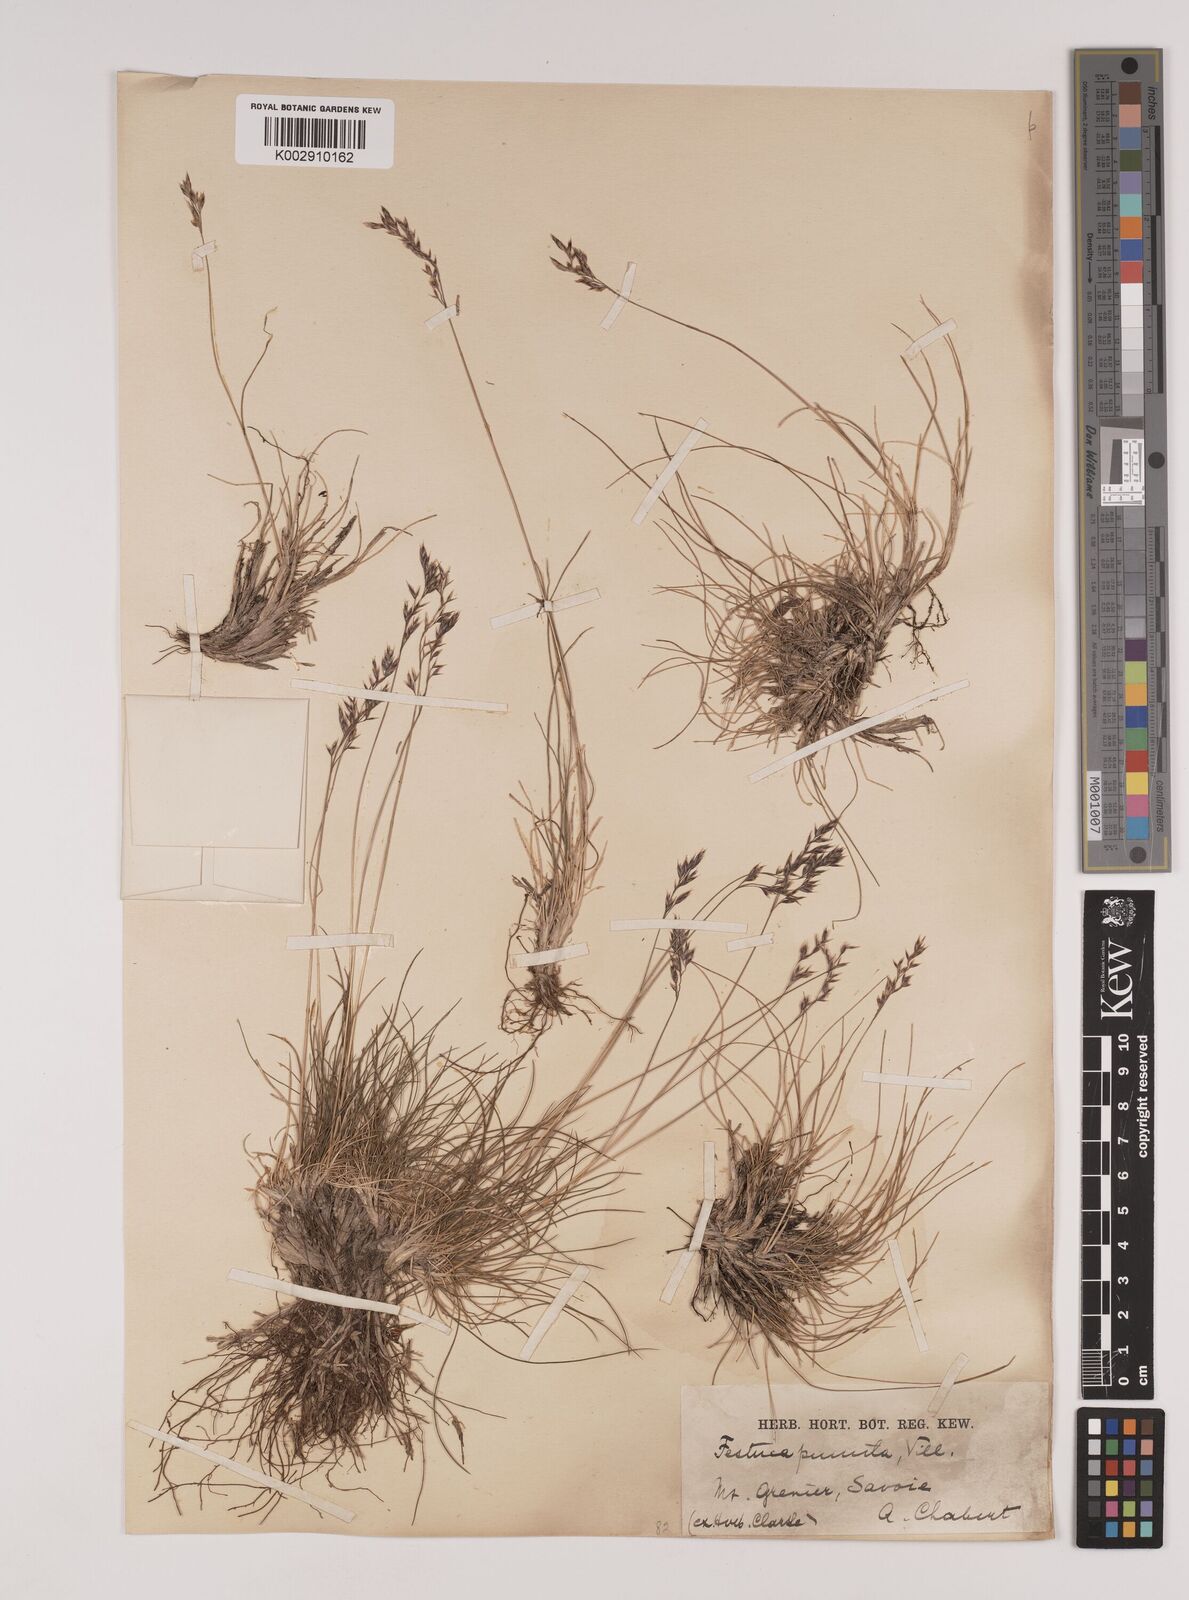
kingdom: Plantae
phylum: Tracheophyta
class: Liliopsida
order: Poales
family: Poaceae
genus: Festuca
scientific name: Festuca
